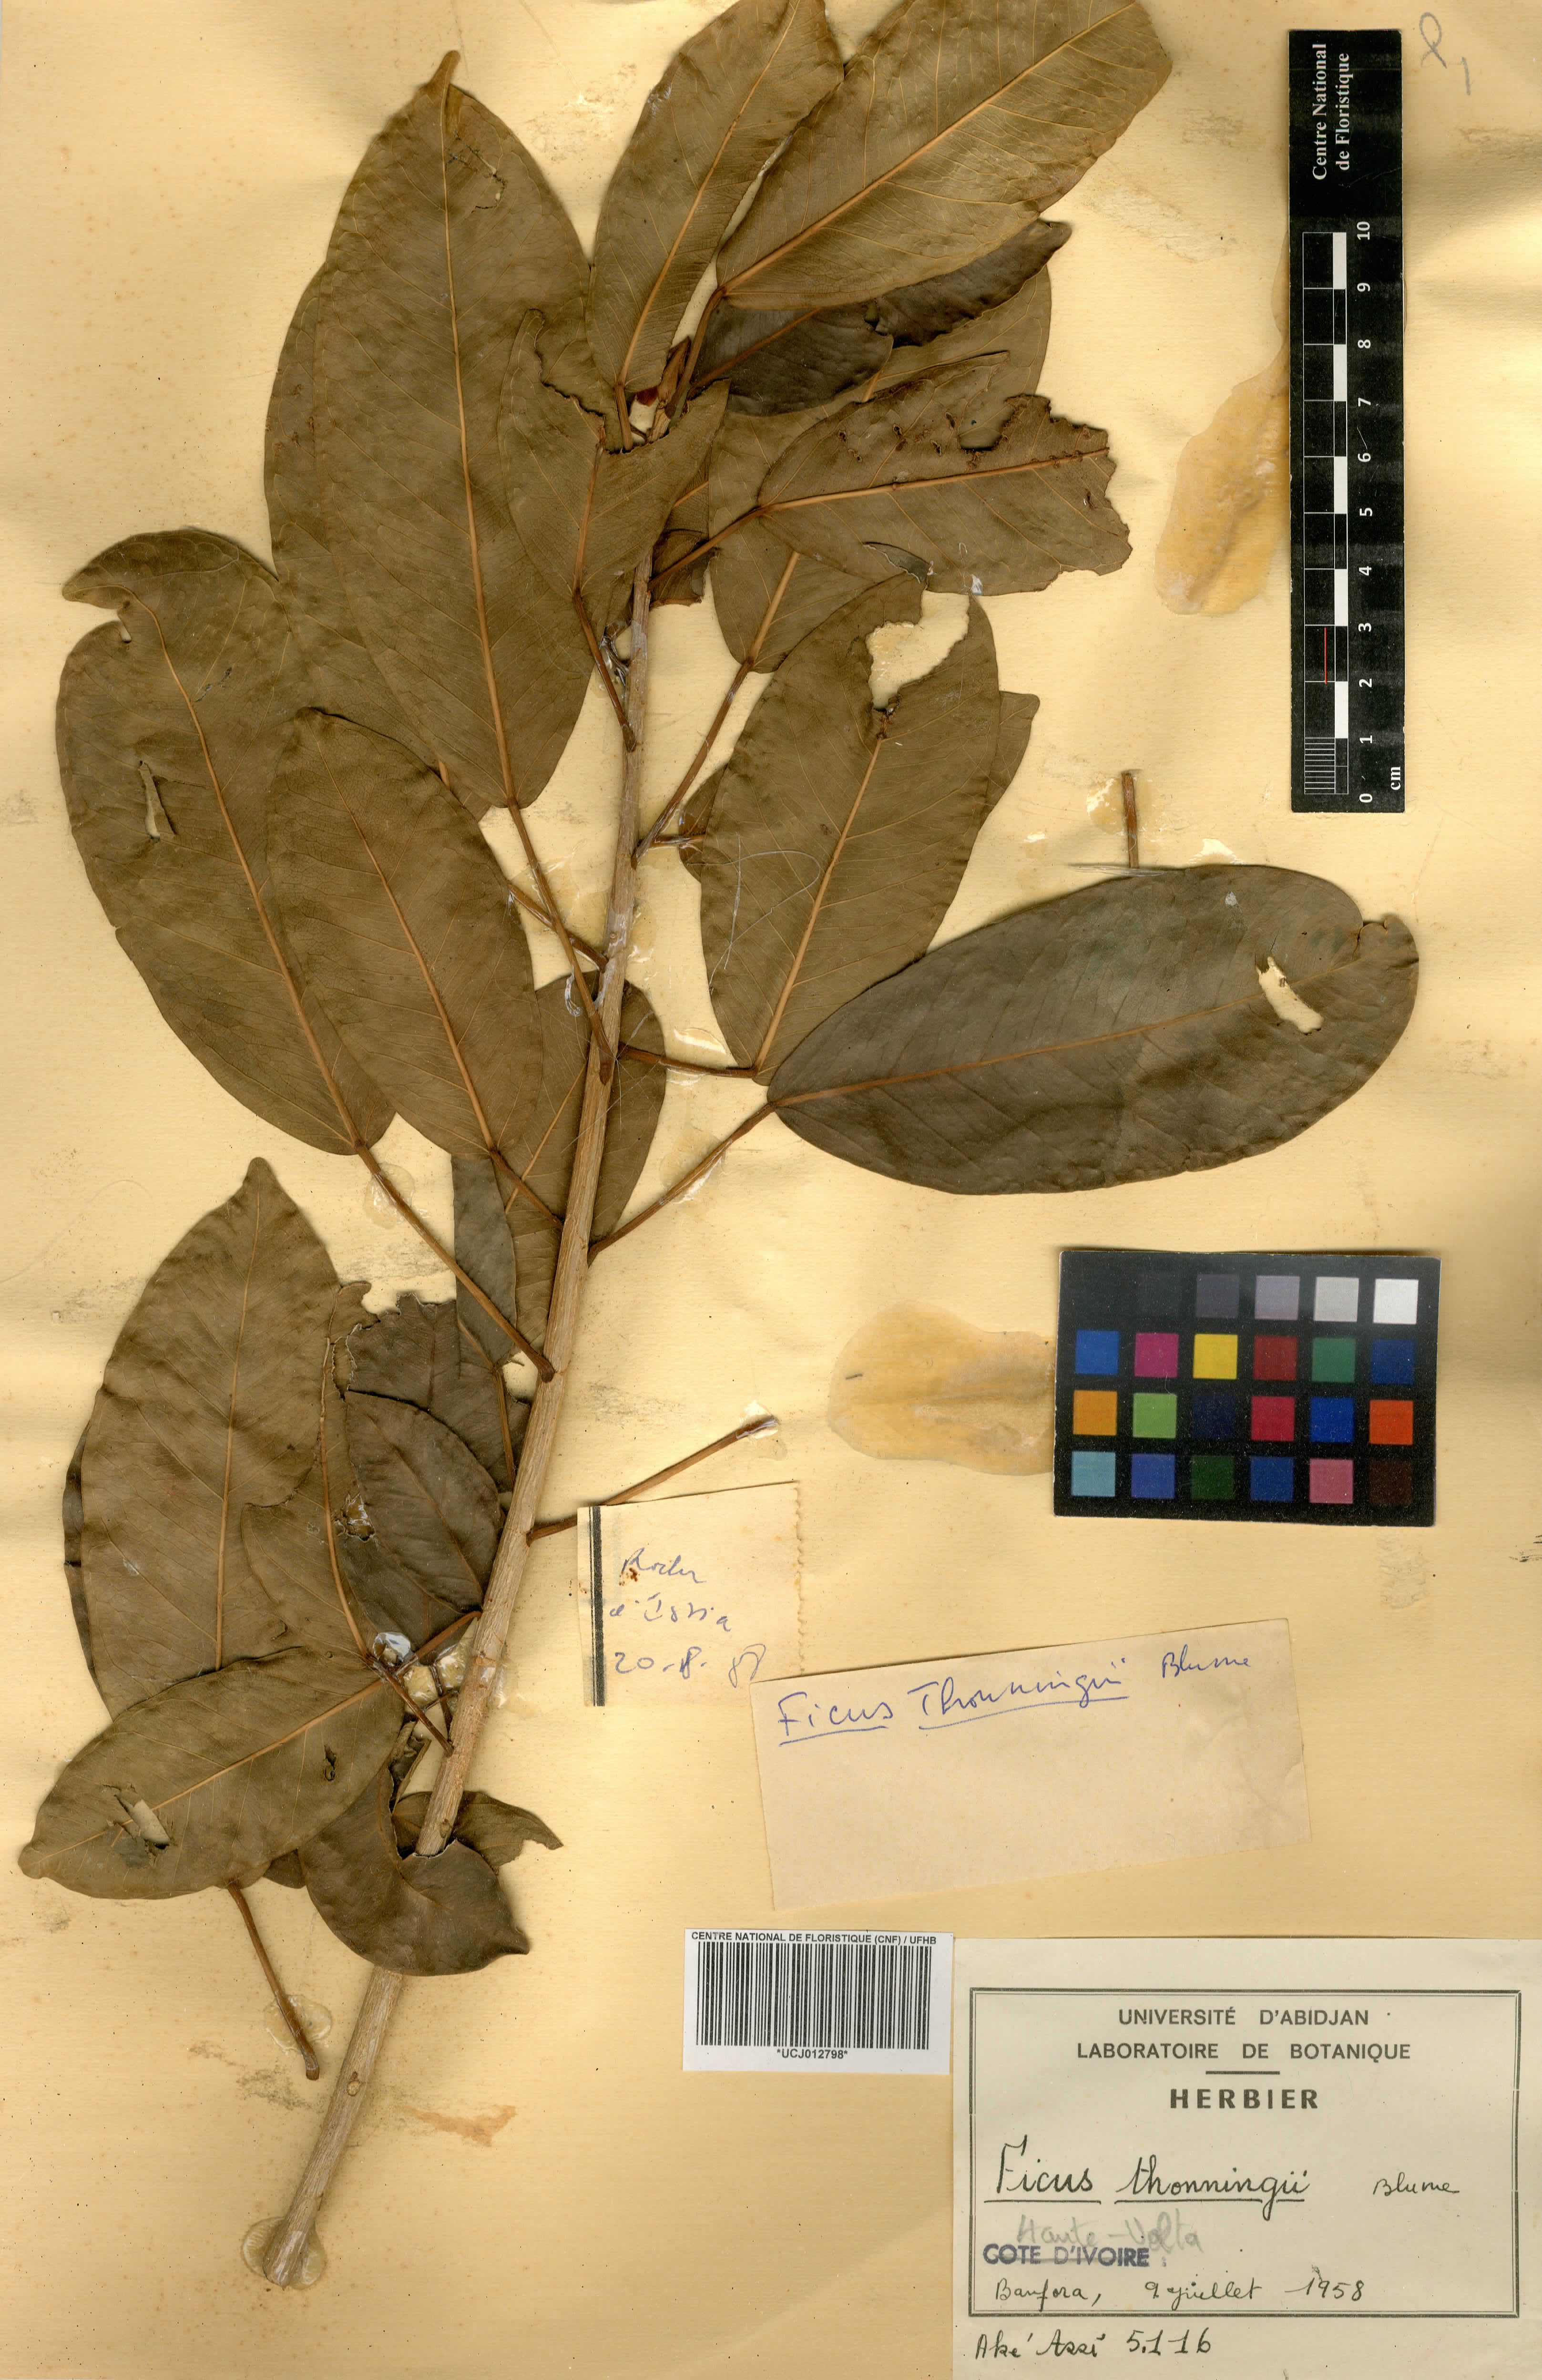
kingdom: Plantae
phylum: Tracheophyta
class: Magnoliopsida
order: Rosales
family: Moraceae
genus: Ficus
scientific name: Ficus thonningii
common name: Fig
